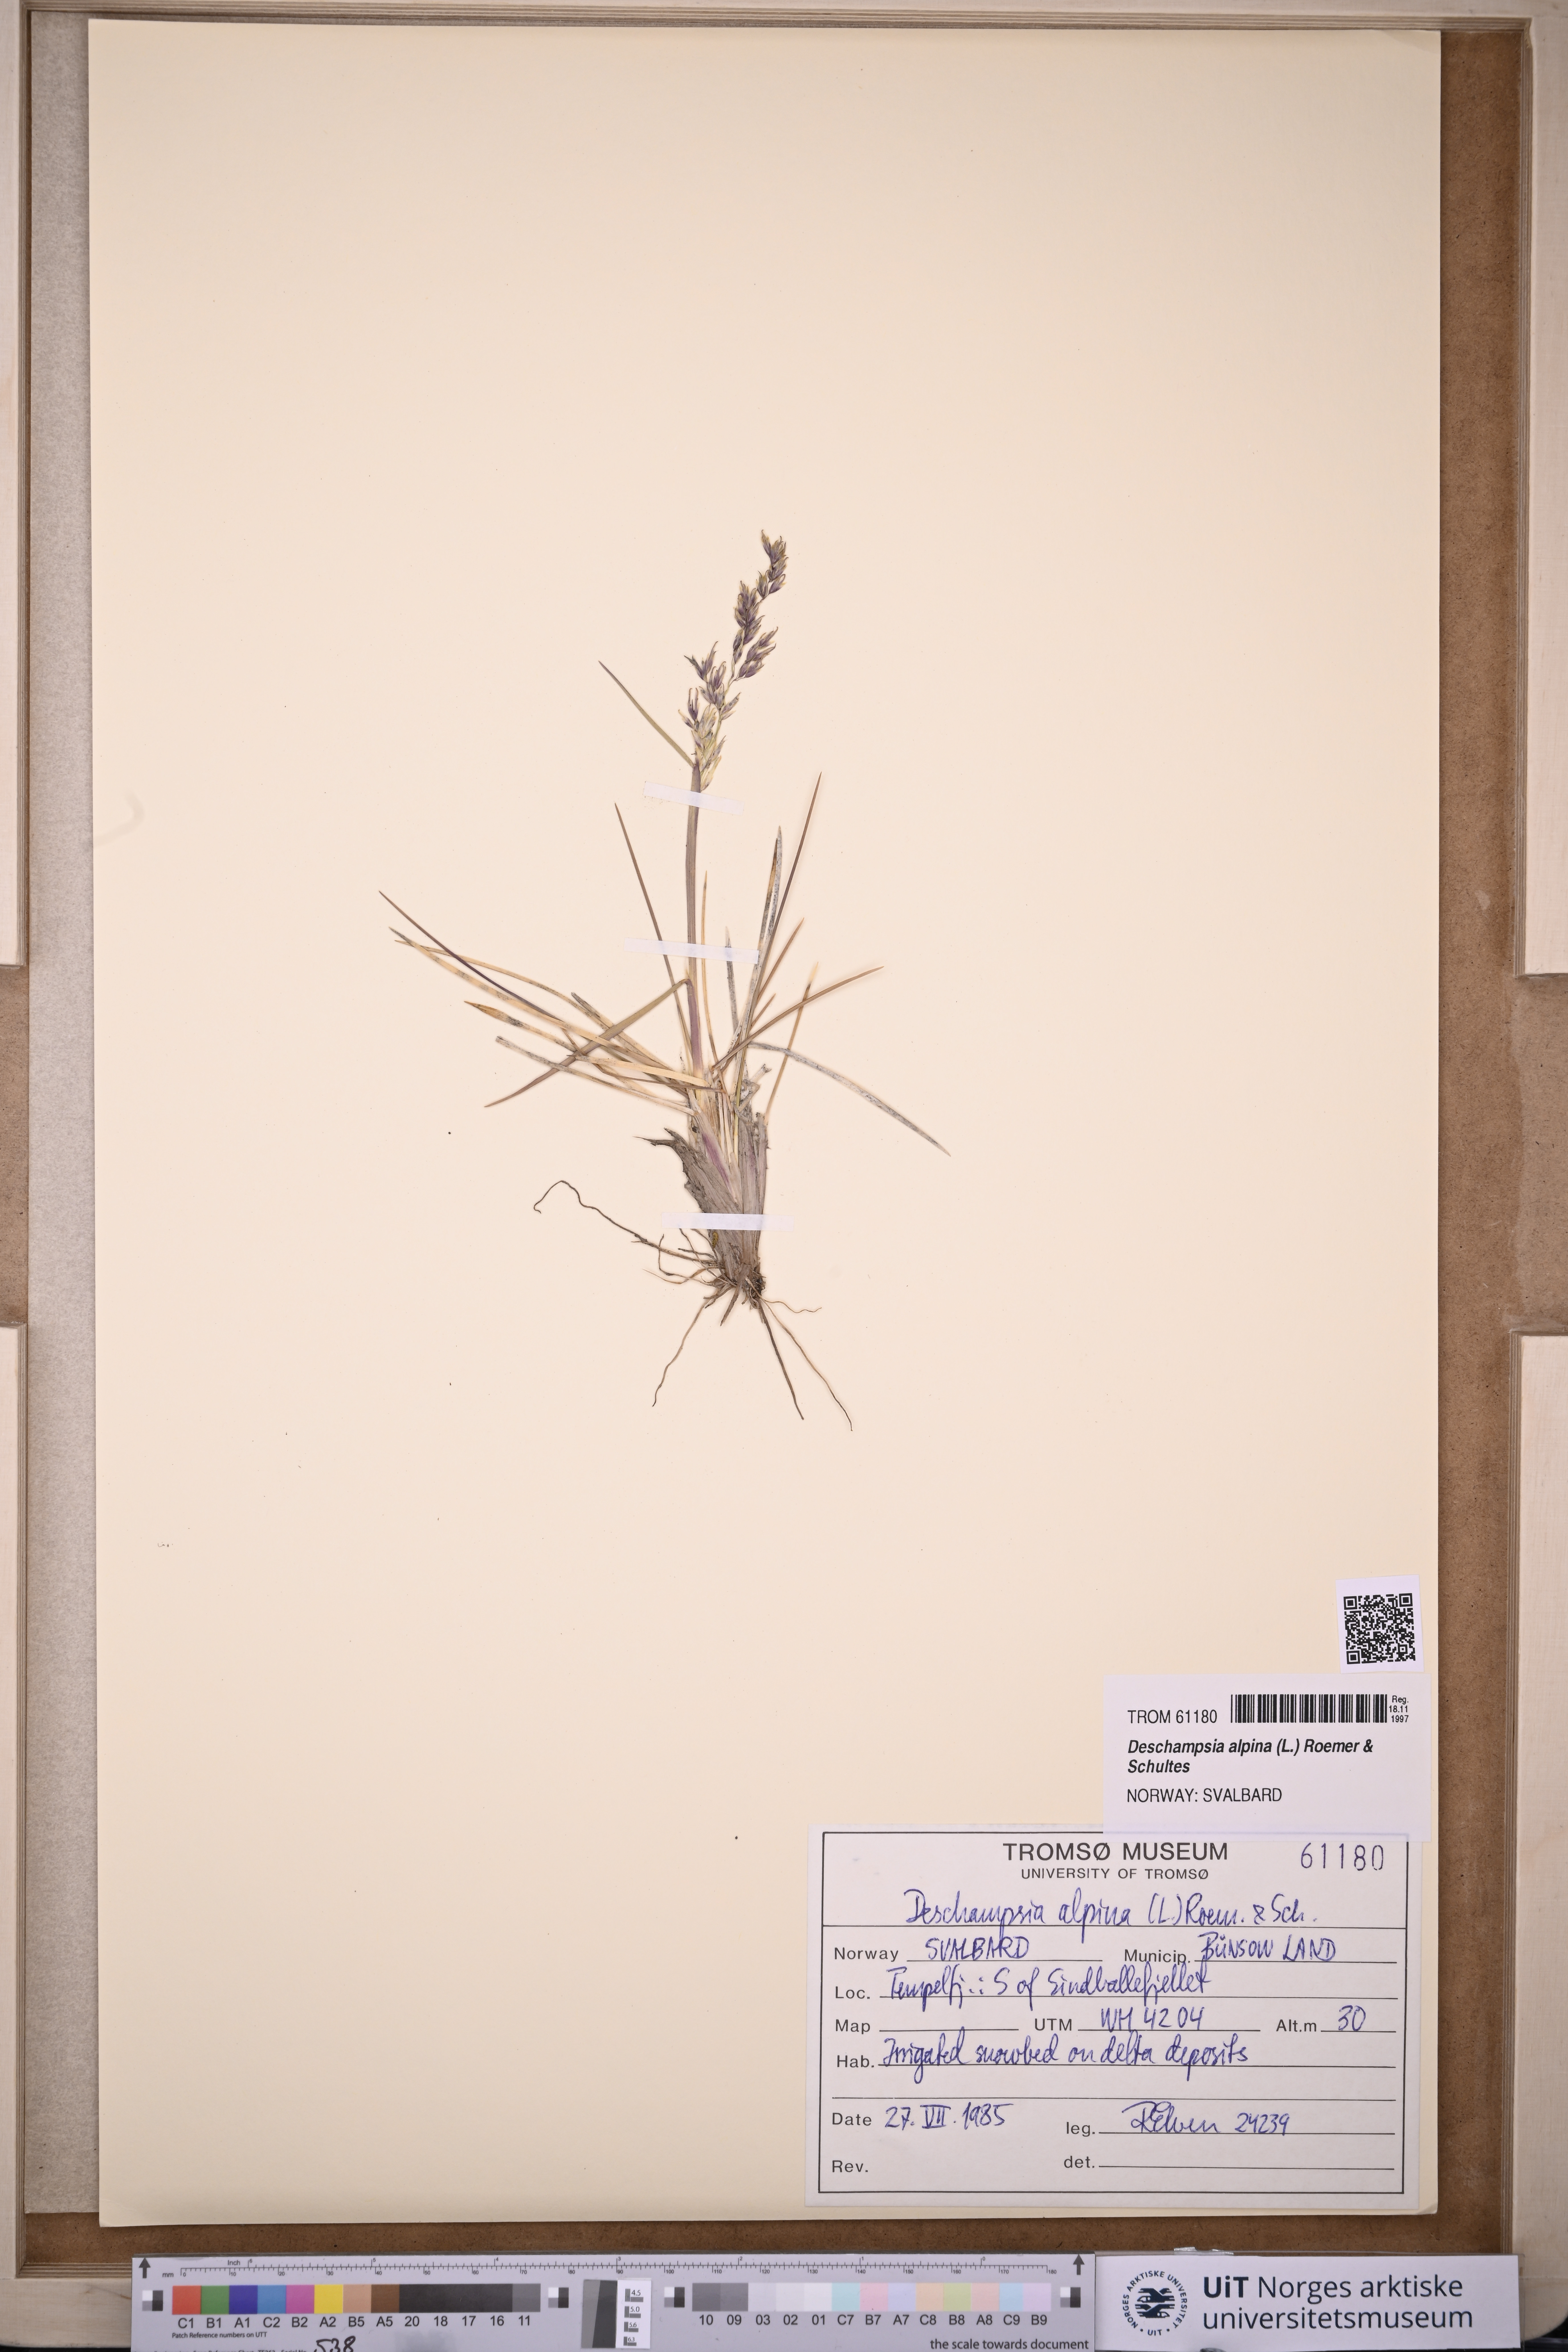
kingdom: Plantae
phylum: Tracheophyta
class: Liliopsida
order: Poales
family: Poaceae
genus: Deschampsia
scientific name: Deschampsia cespitosa
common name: Tufted hair-grass
